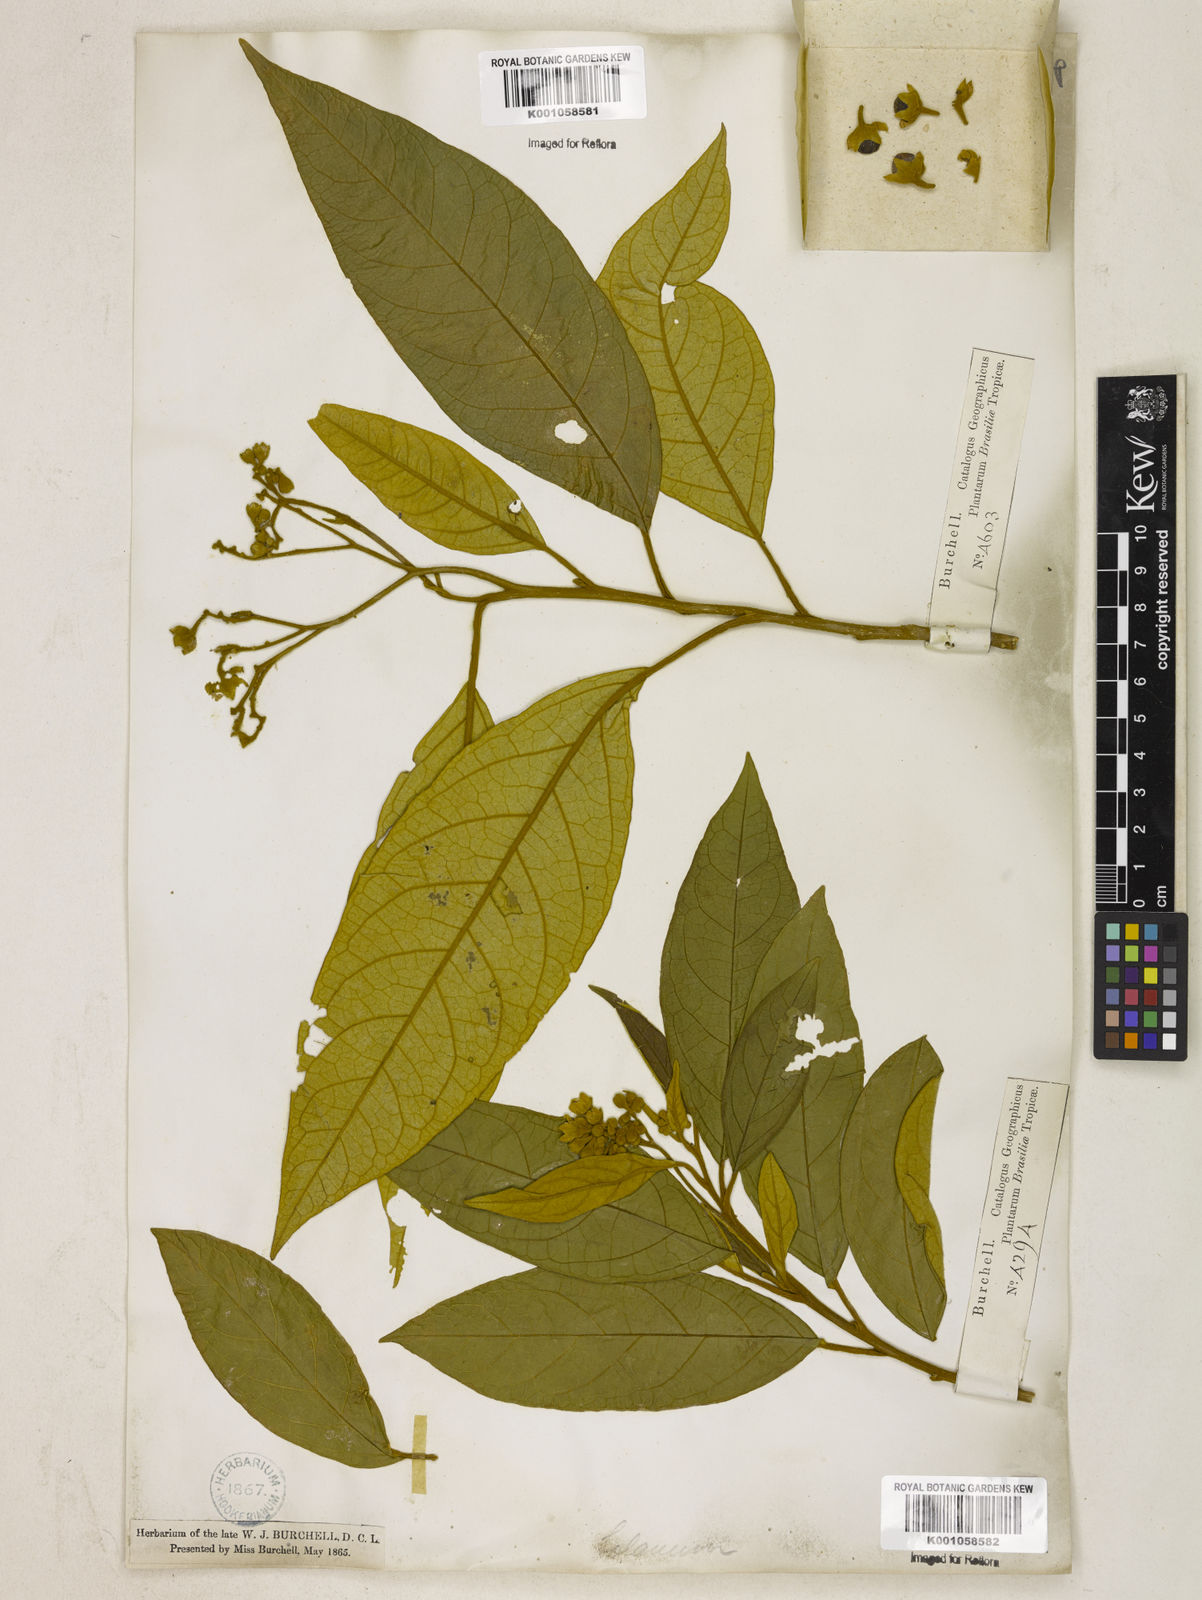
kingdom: Plantae
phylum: Tracheophyta
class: Magnoliopsida
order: Solanales
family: Solanaceae
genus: Solanum
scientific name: Solanum rufescens
